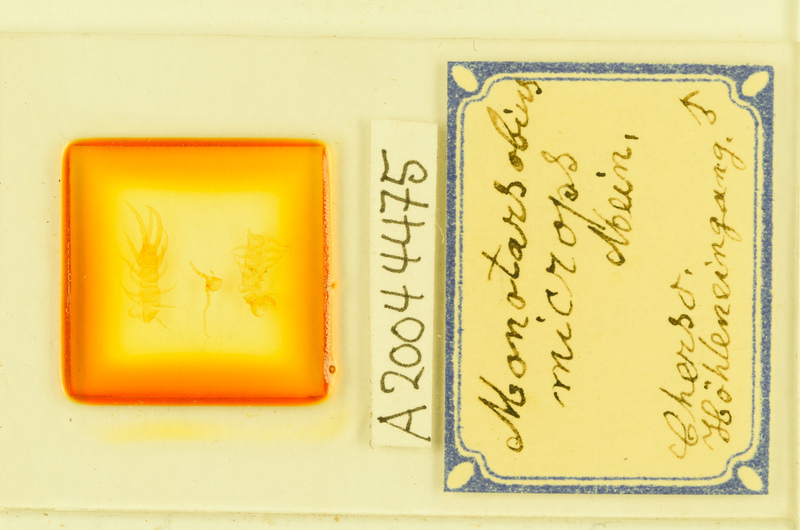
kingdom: Animalia
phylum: Arthropoda
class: Chilopoda
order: Lithobiomorpha
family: Lithobiidae
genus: Monotarsobius
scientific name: Monotarsobius microps
